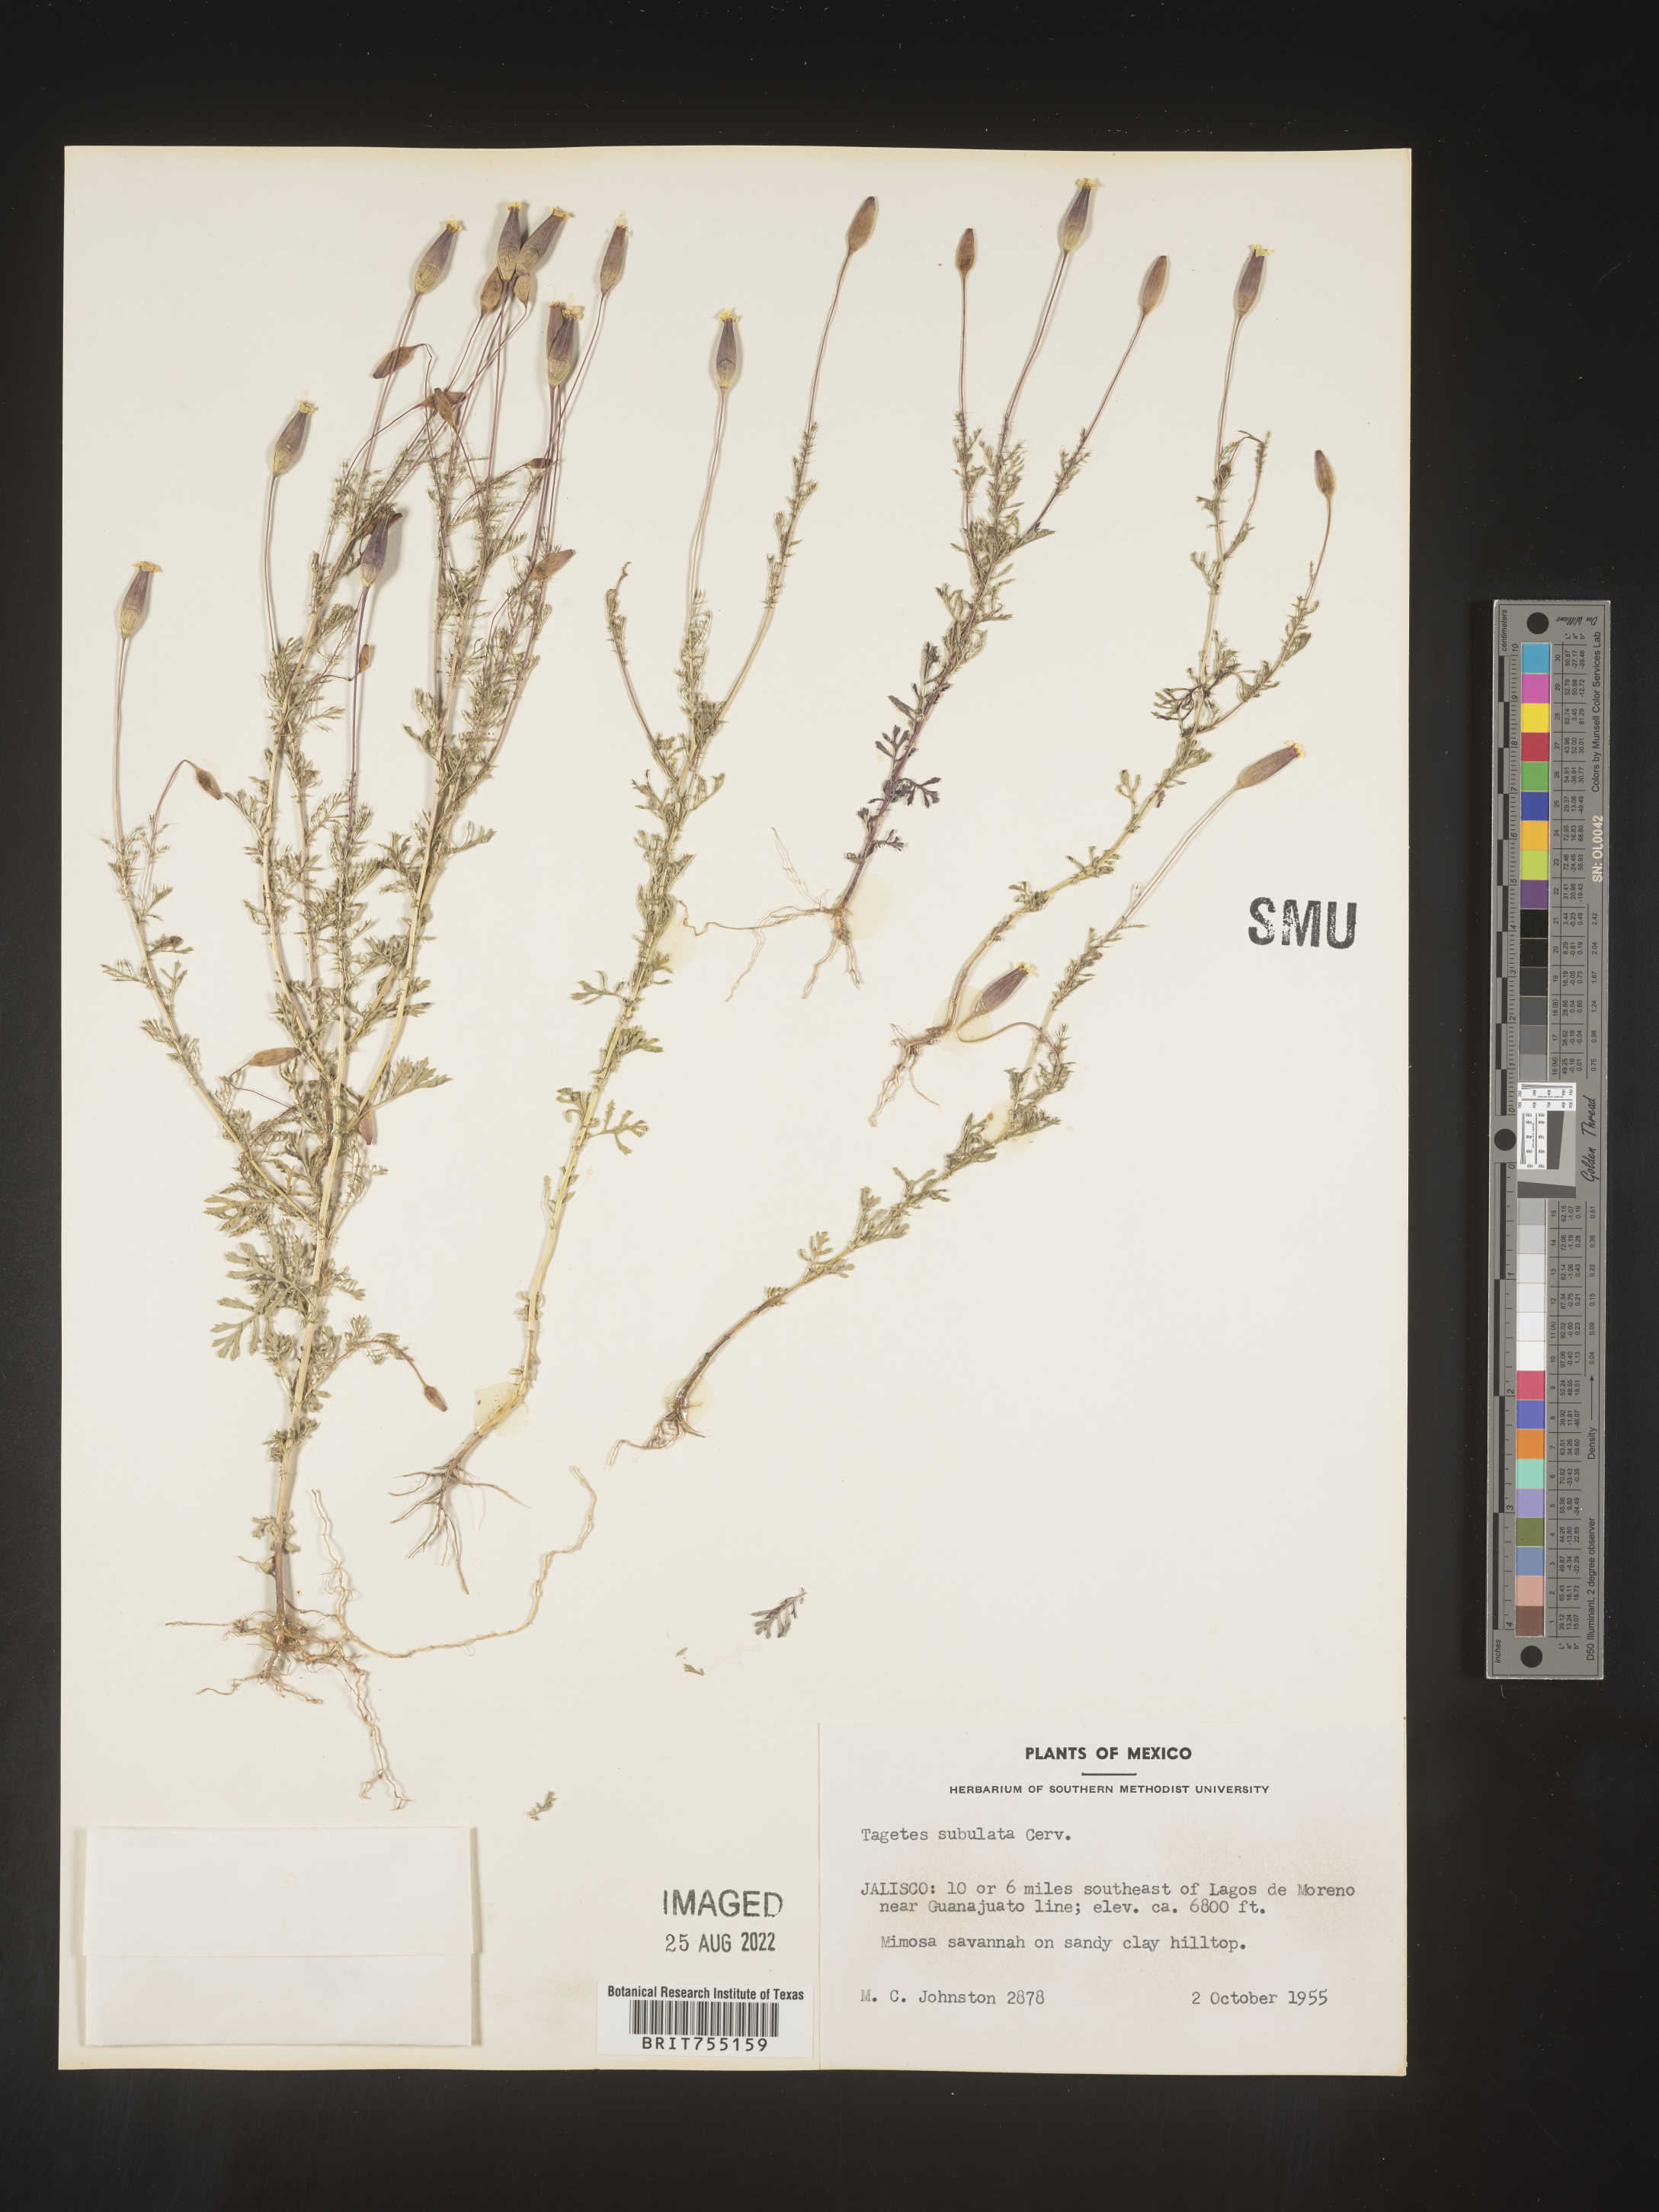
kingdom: Plantae
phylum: Tracheophyta
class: Magnoliopsida
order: Asterales
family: Asteraceae
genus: Tagetes
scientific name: Tagetes
